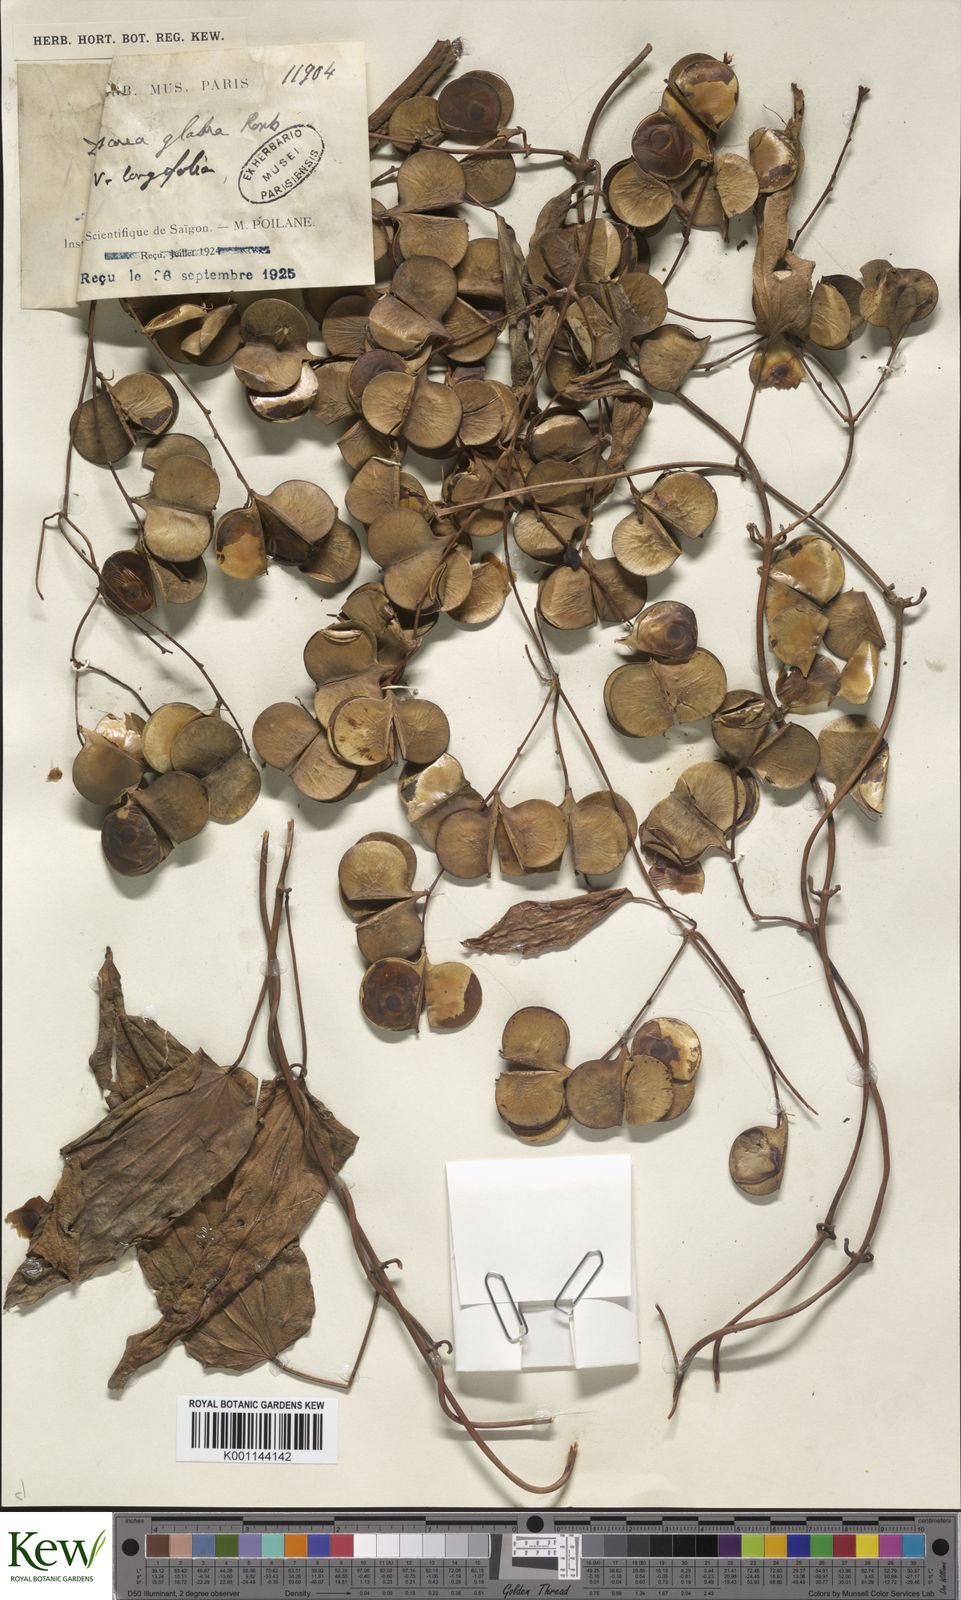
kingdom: Plantae
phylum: Tracheophyta
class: Liliopsida
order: Dioscoreales
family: Dioscoreaceae
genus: Dioscorea
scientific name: Dioscorea glabra
